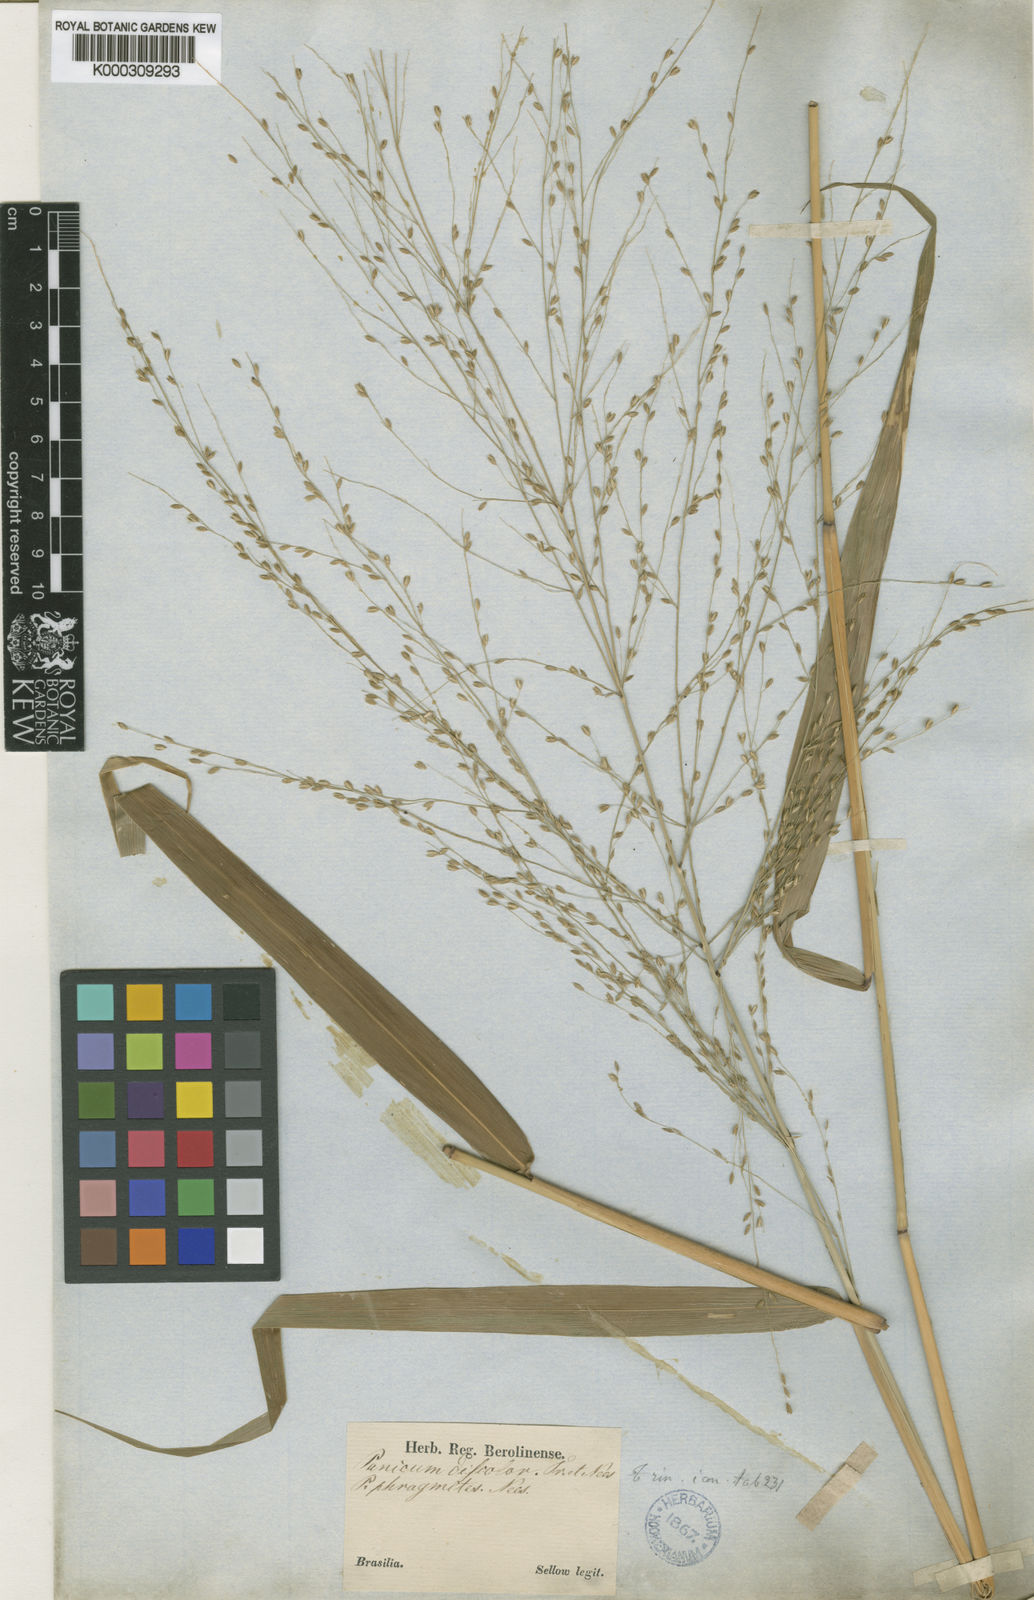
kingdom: Plantae
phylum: Tracheophyta
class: Liliopsida
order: Poales
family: Poaceae
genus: Parodiophyllochloa
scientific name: Parodiophyllochloa penicillata
